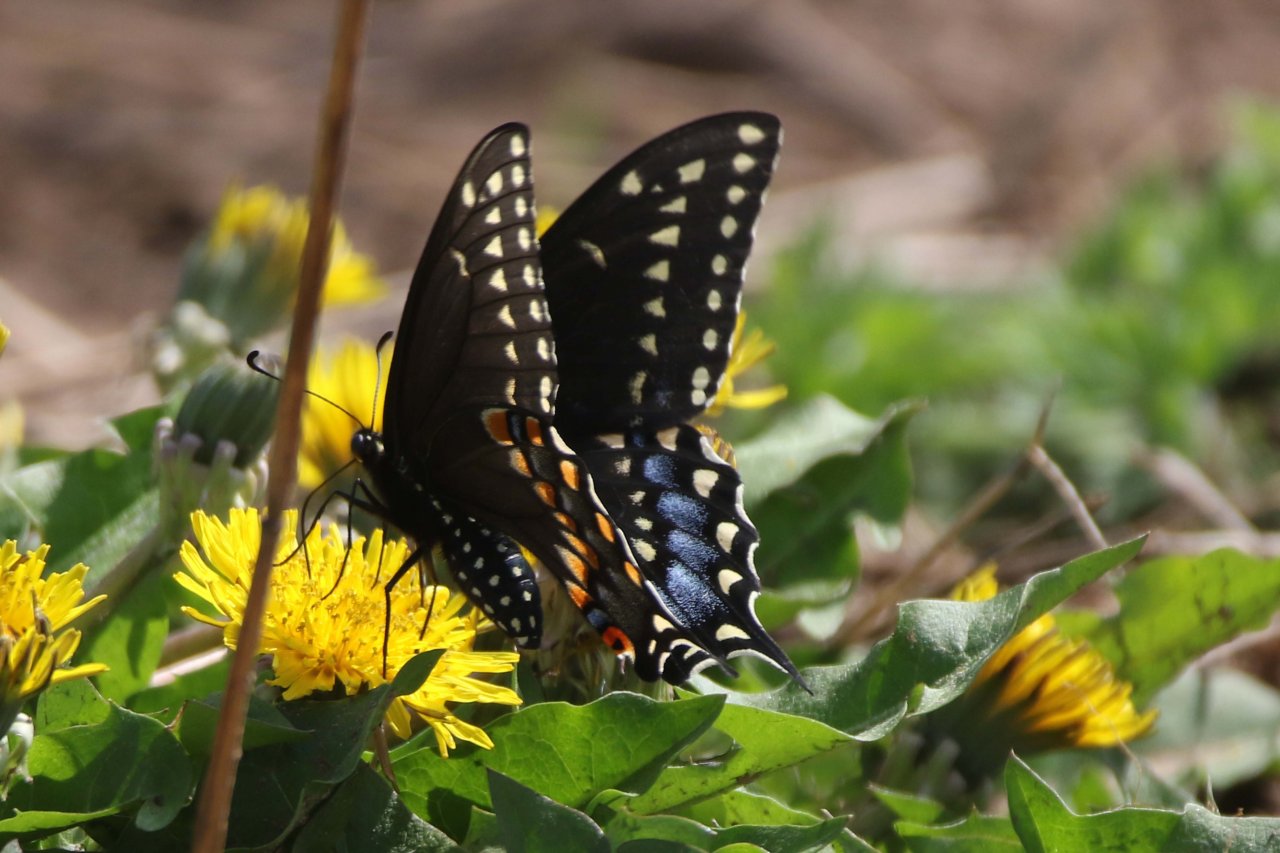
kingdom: Animalia
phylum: Arthropoda
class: Insecta
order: Lepidoptera
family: Papilionidae
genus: Papilio
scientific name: Papilio polyxenes
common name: Black Swallowtail
